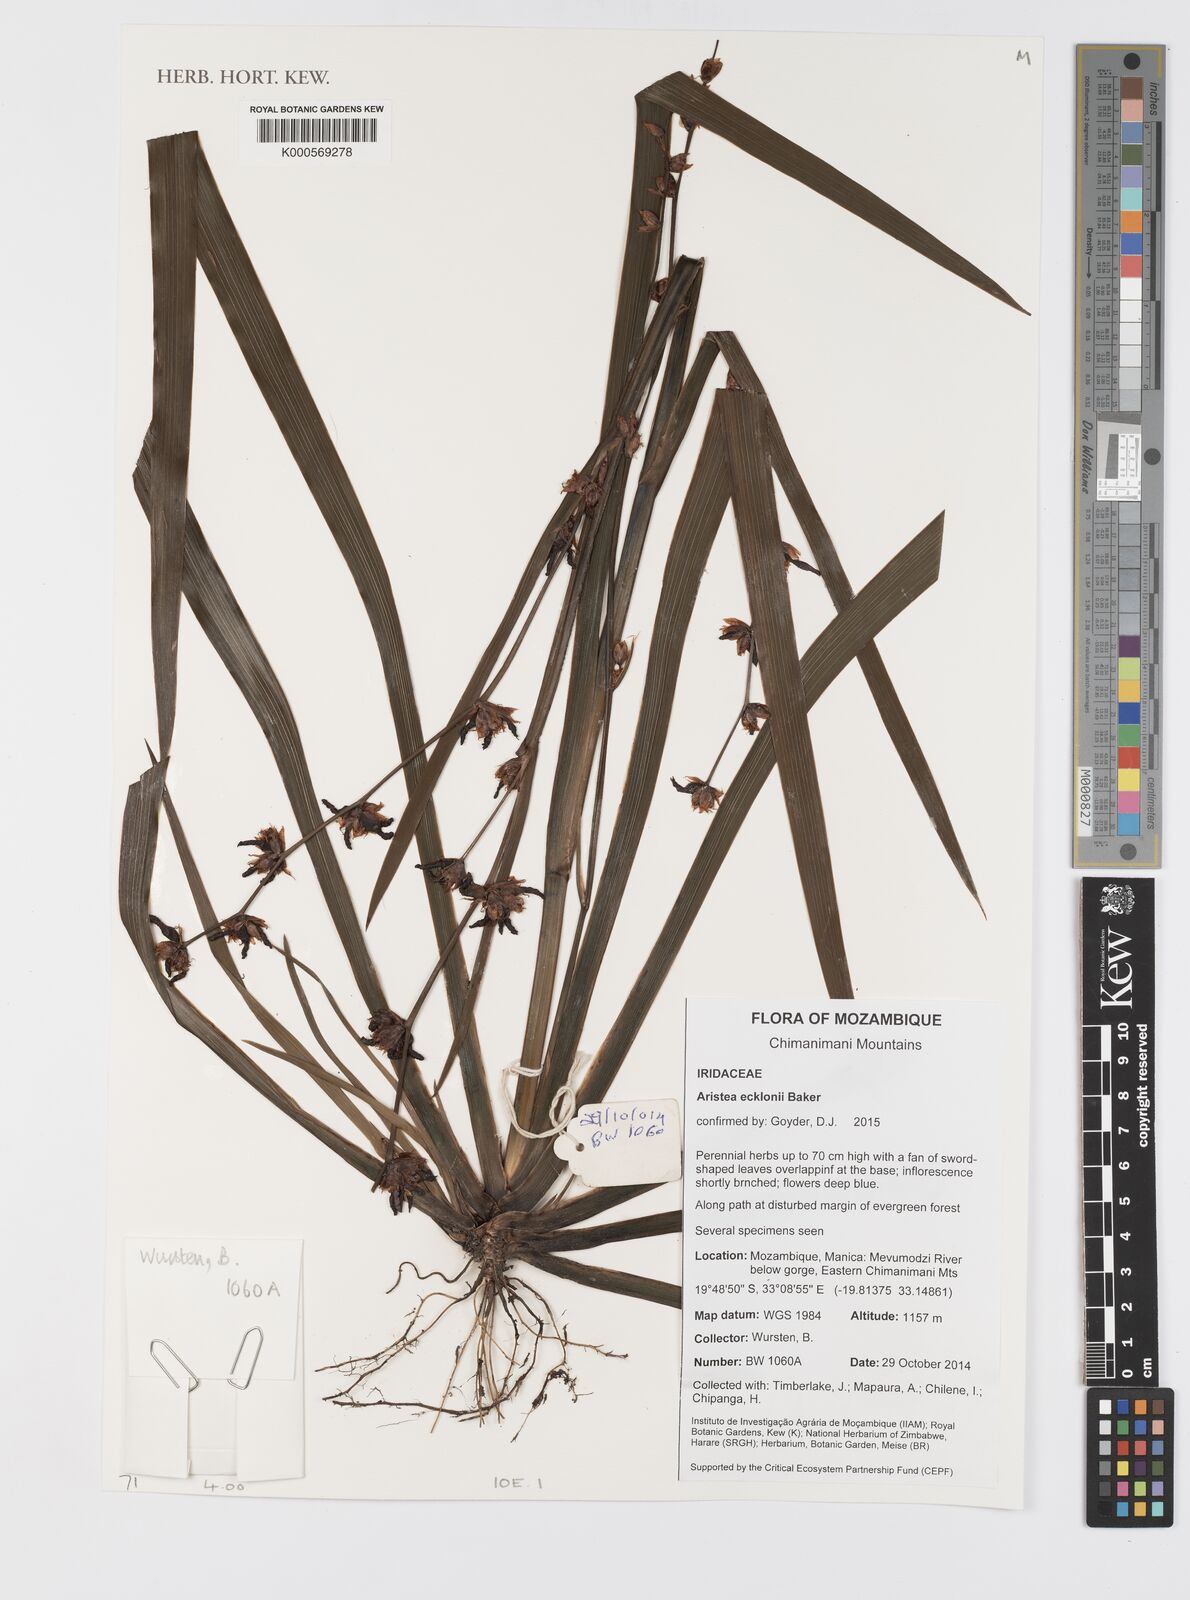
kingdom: Plantae
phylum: Tracheophyta
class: Liliopsida
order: Asparagales
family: Iridaceae
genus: Aristea
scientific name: Aristea ecklonii
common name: Blue corn-lily
